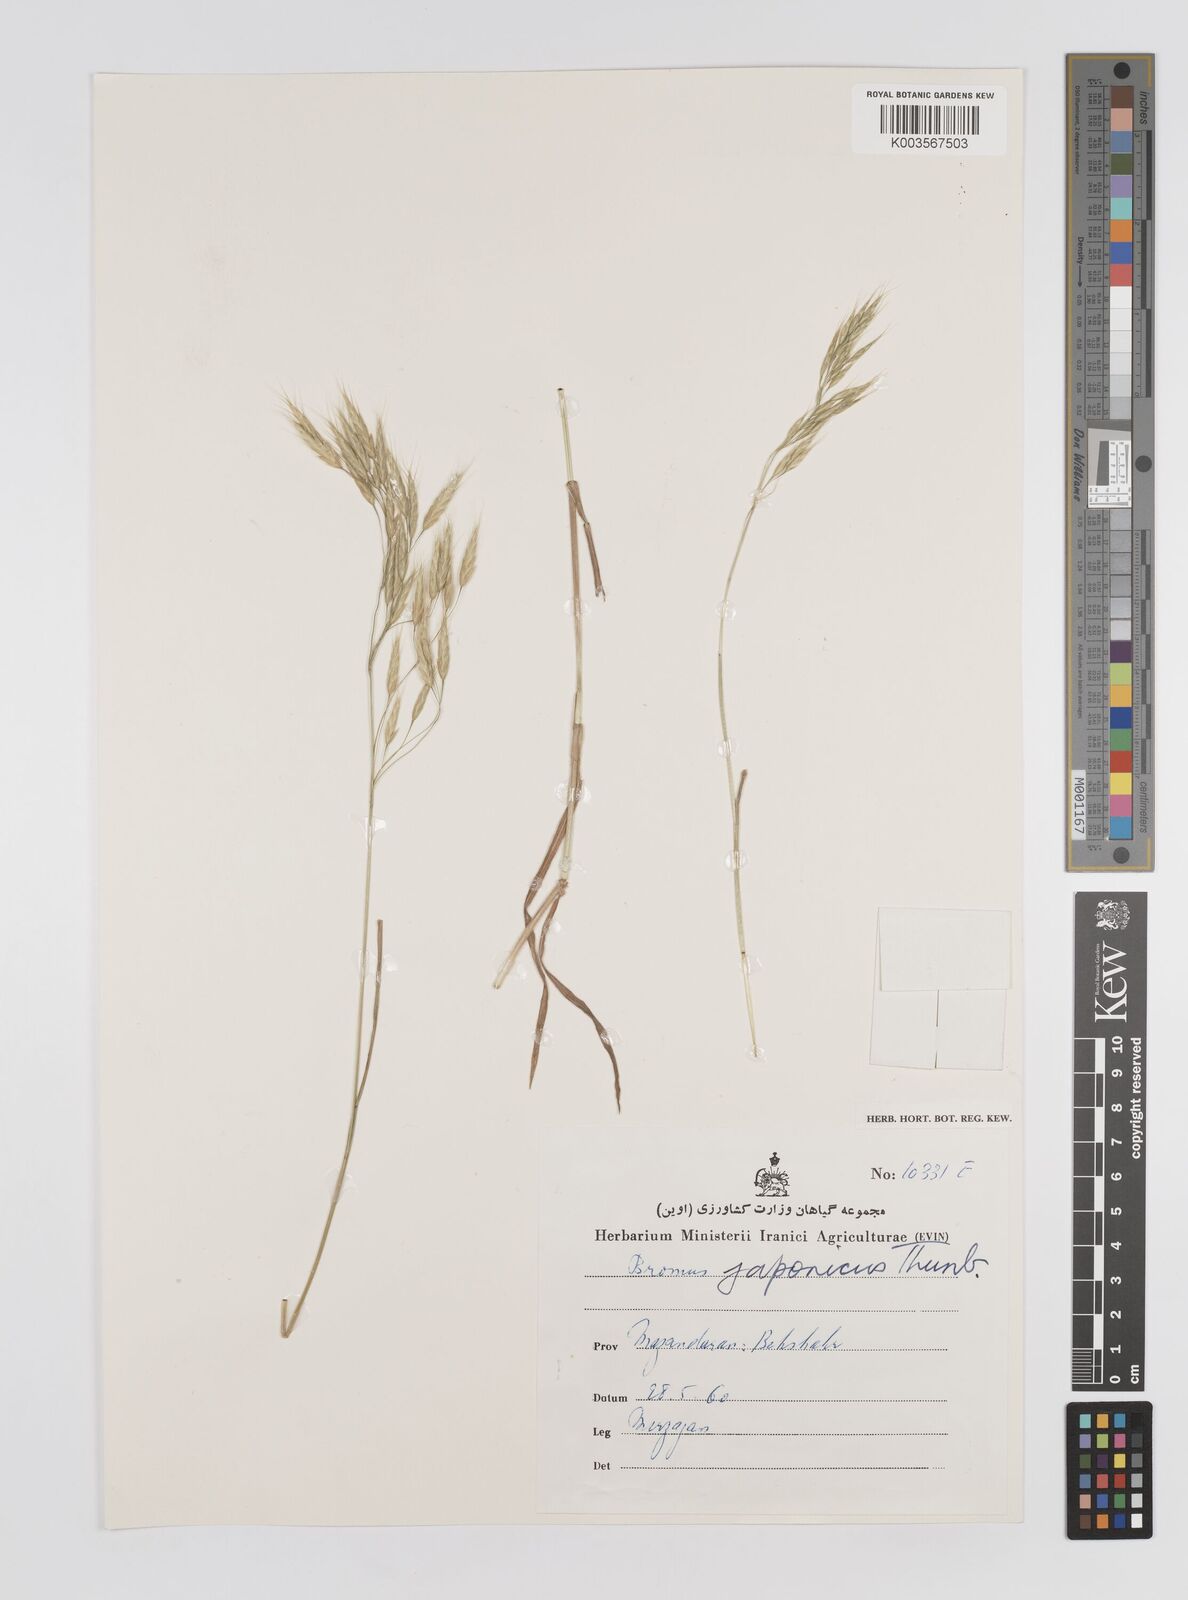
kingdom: Plantae
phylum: Tracheophyta
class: Liliopsida
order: Poales
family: Poaceae
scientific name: Poaceae
